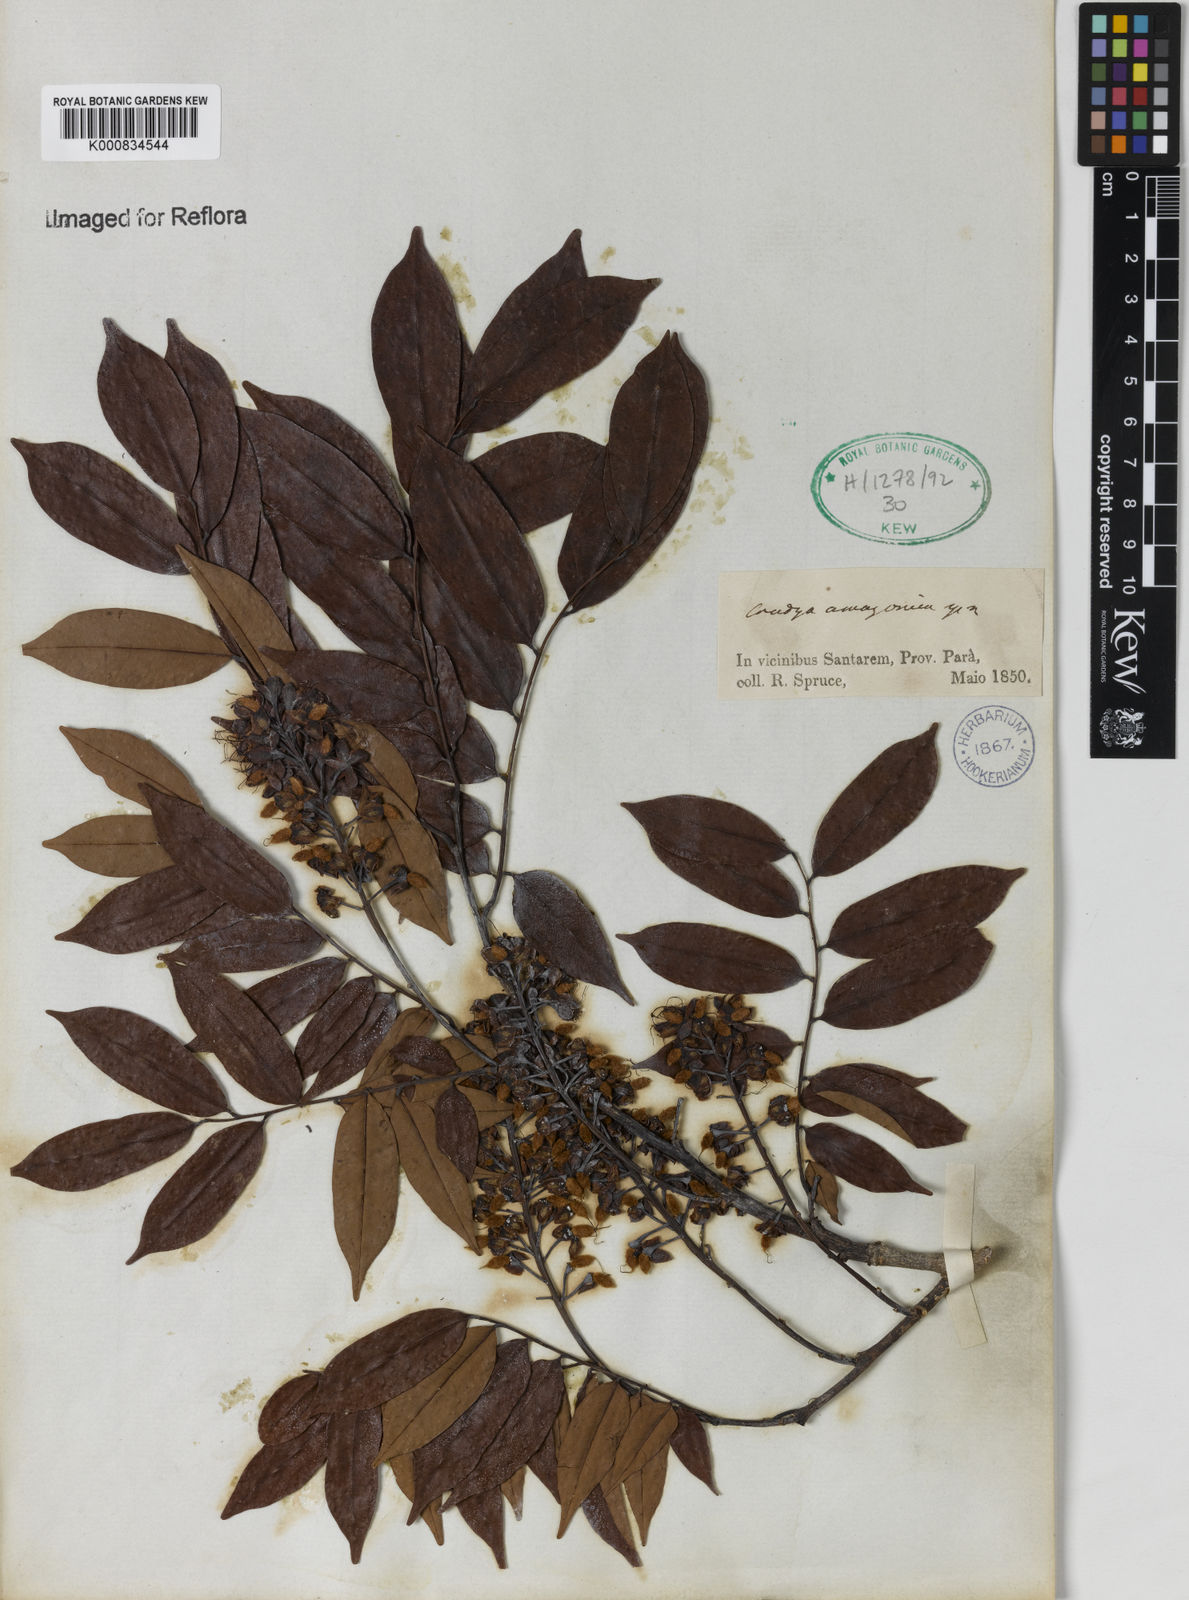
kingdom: Plantae
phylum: Tracheophyta
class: Magnoliopsida
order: Fabales
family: Fabaceae
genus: Crudia
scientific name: Crudia
